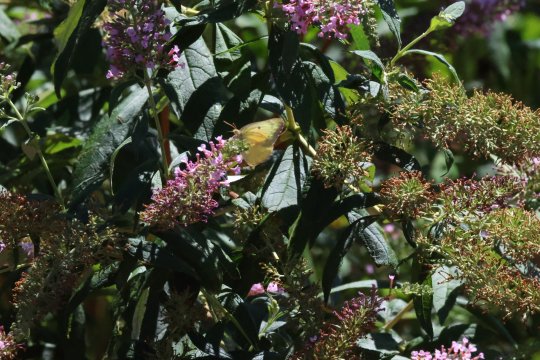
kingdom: Animalia
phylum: Arthropoda
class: Insecta
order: Lepidoptera
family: Pieridae
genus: Zerene
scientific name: Zerene cesonia
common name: Southern Dogface
